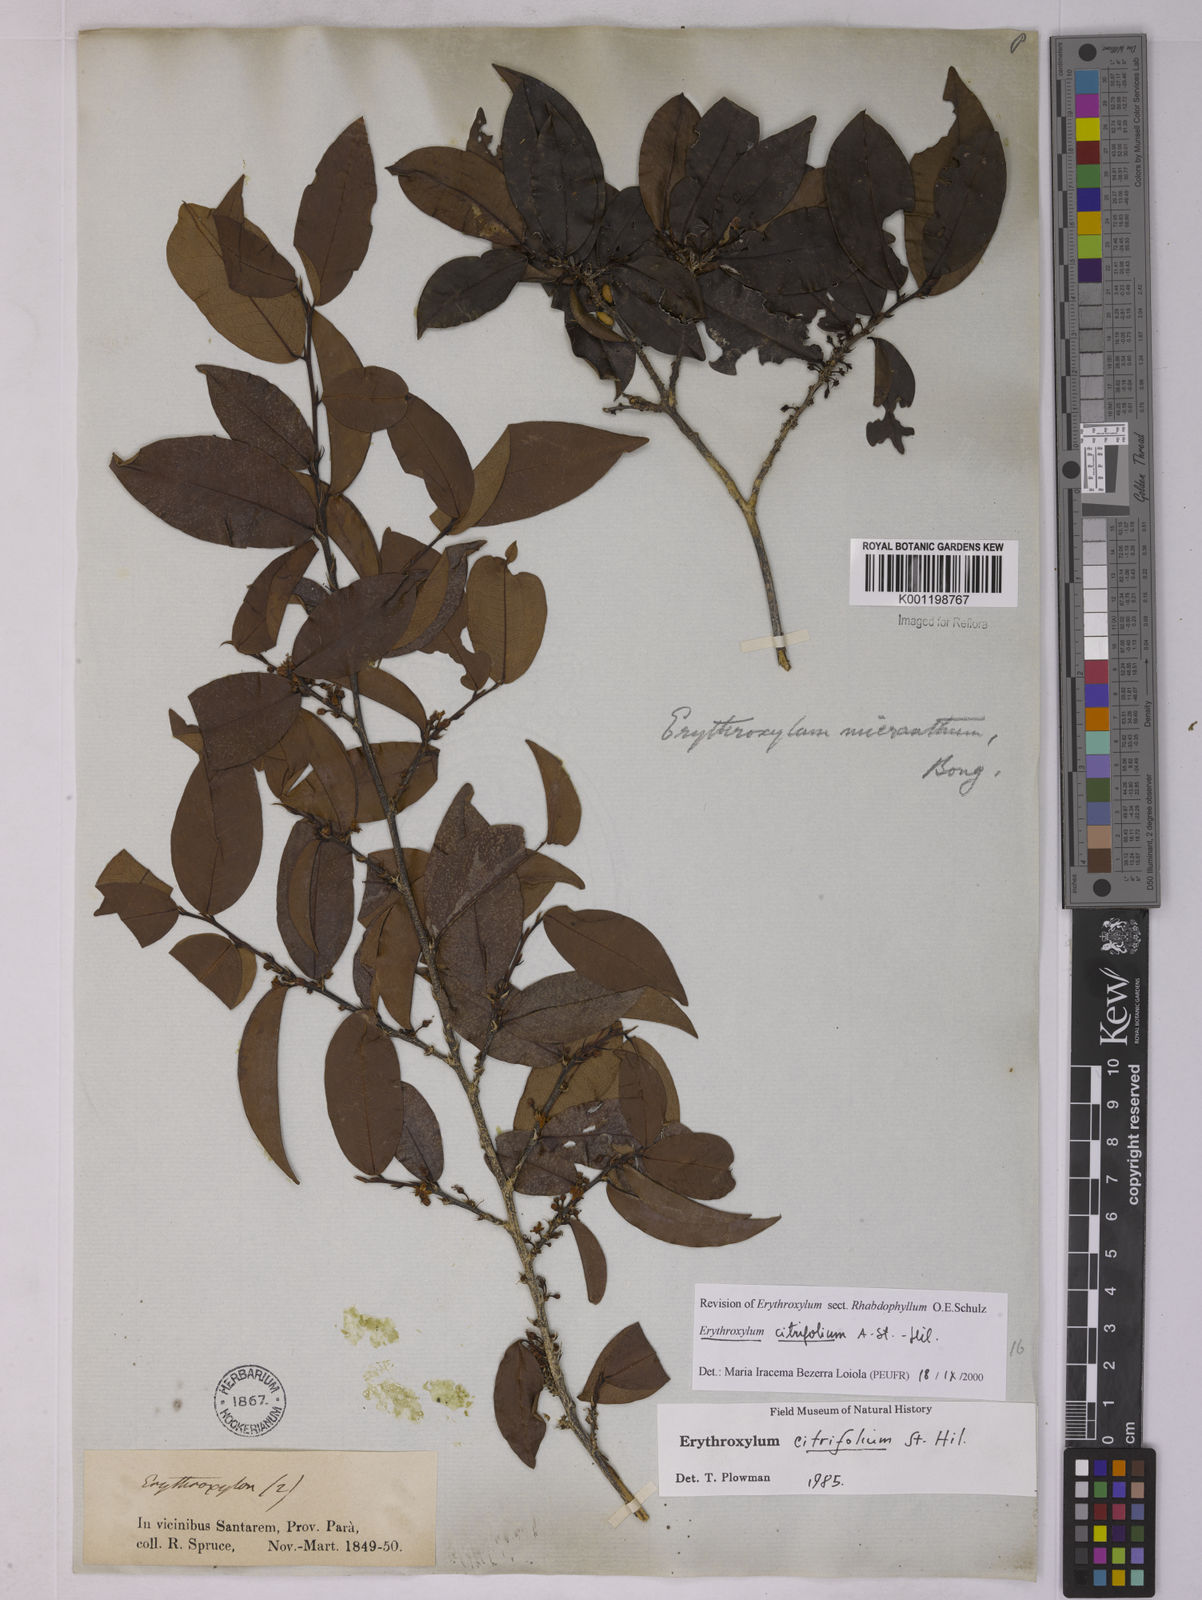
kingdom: Plantae
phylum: Tracheophyta
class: Magnoliopsida
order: Malpighiales
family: Erythroxylaceae
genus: Erythroxylum
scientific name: Erythroxylum citrifolium
